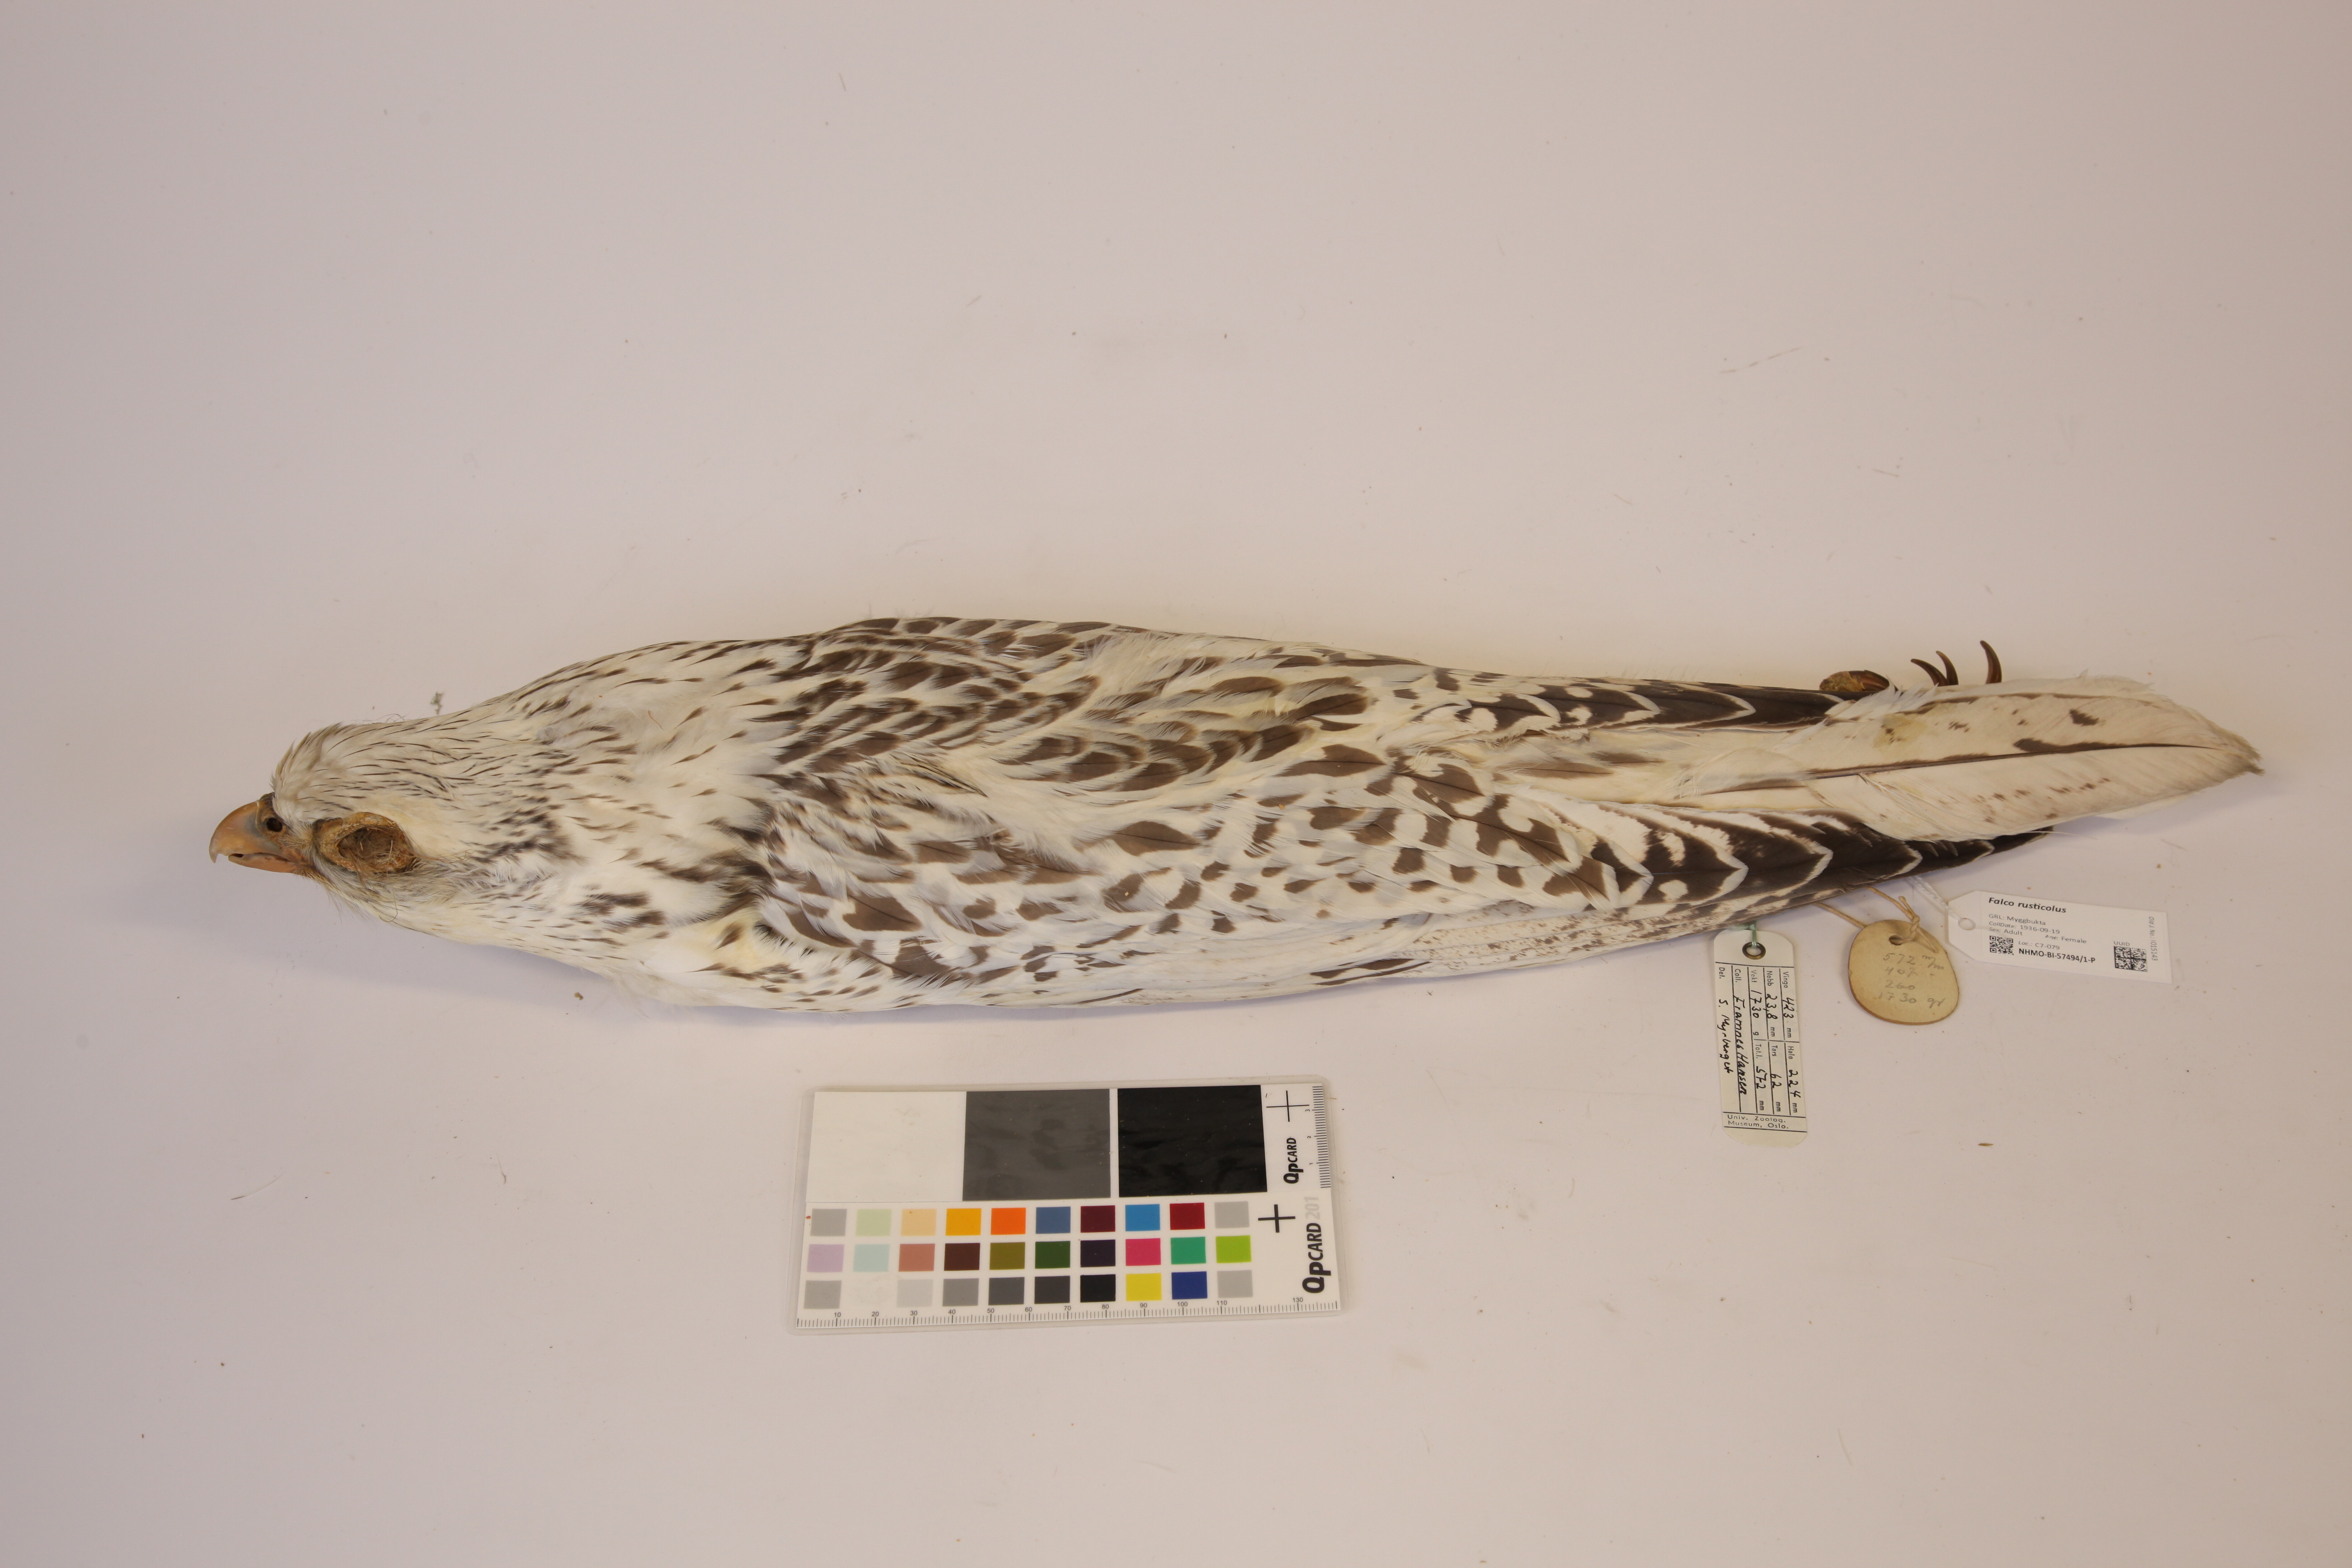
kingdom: Animalia
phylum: Chordata
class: Aves
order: Falconiformes
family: Falconidae
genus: Falco
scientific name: Falco rusticolus
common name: Gyrfalcon
